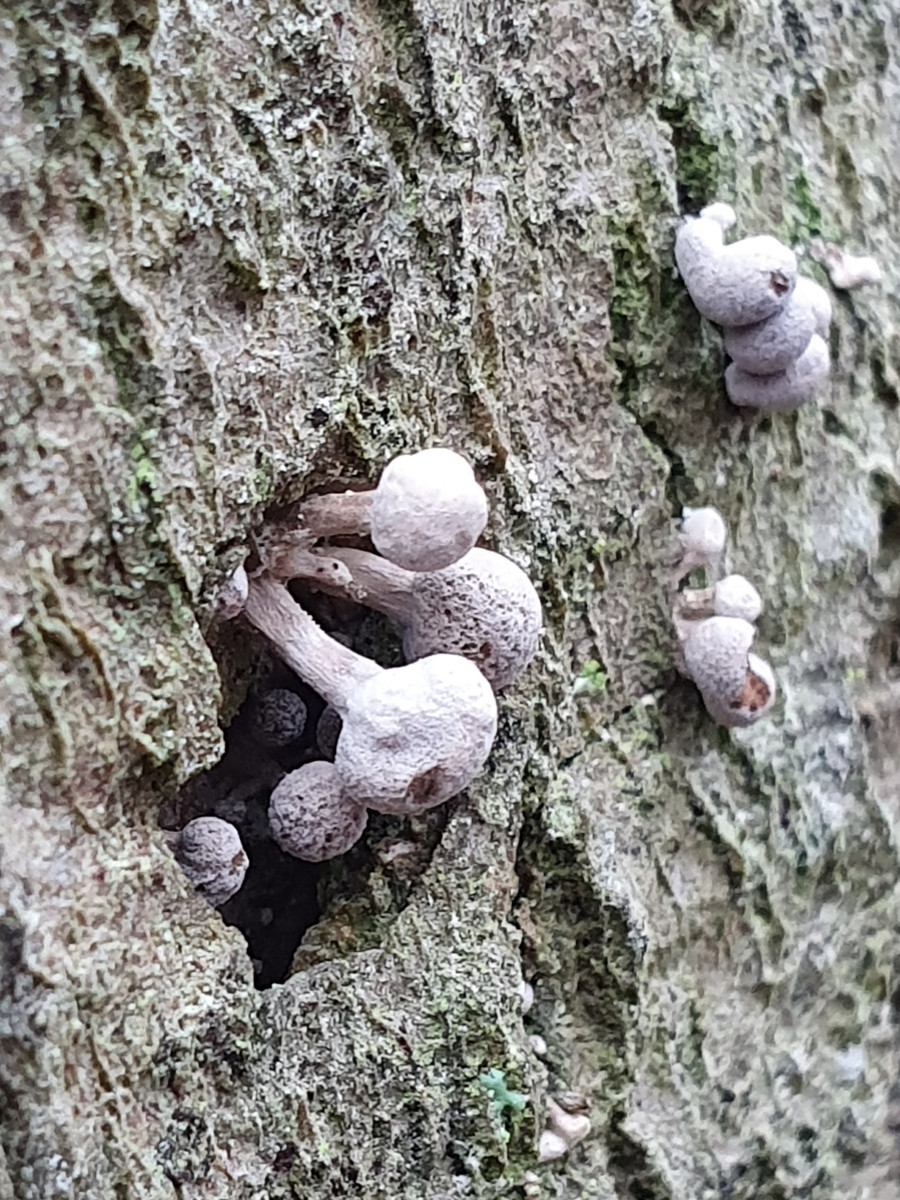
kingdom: Fungi
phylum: Basidiomycota
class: Atractiellomycetes
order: Atractiellales
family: Phleogenaceae
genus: Phleogena
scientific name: Phleogena faginea
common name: pudderkølle
